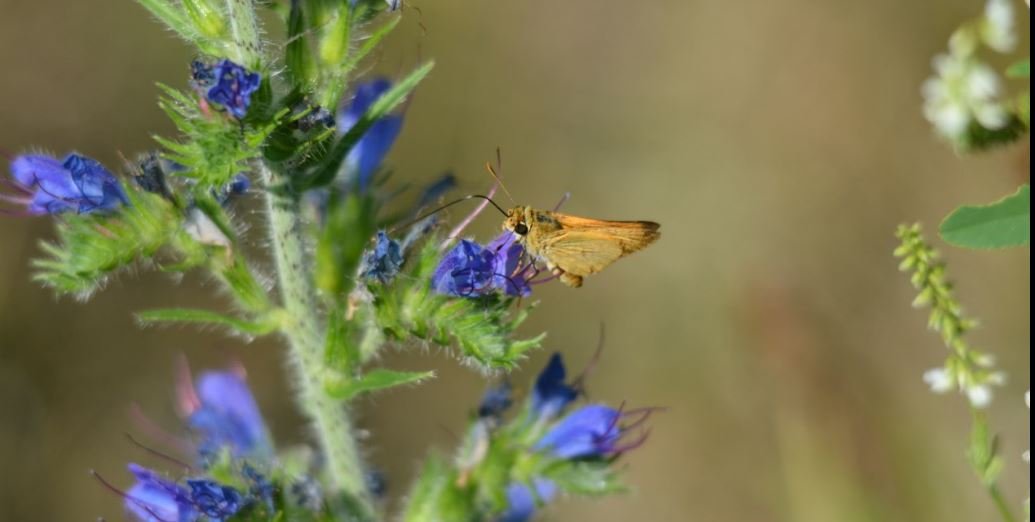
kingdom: Animalia
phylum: Arthropoda
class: Insecta
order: Lepidoptera
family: Hesperiidae
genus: Atrytone
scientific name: Atrytone delaware
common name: Delaware Skipper
